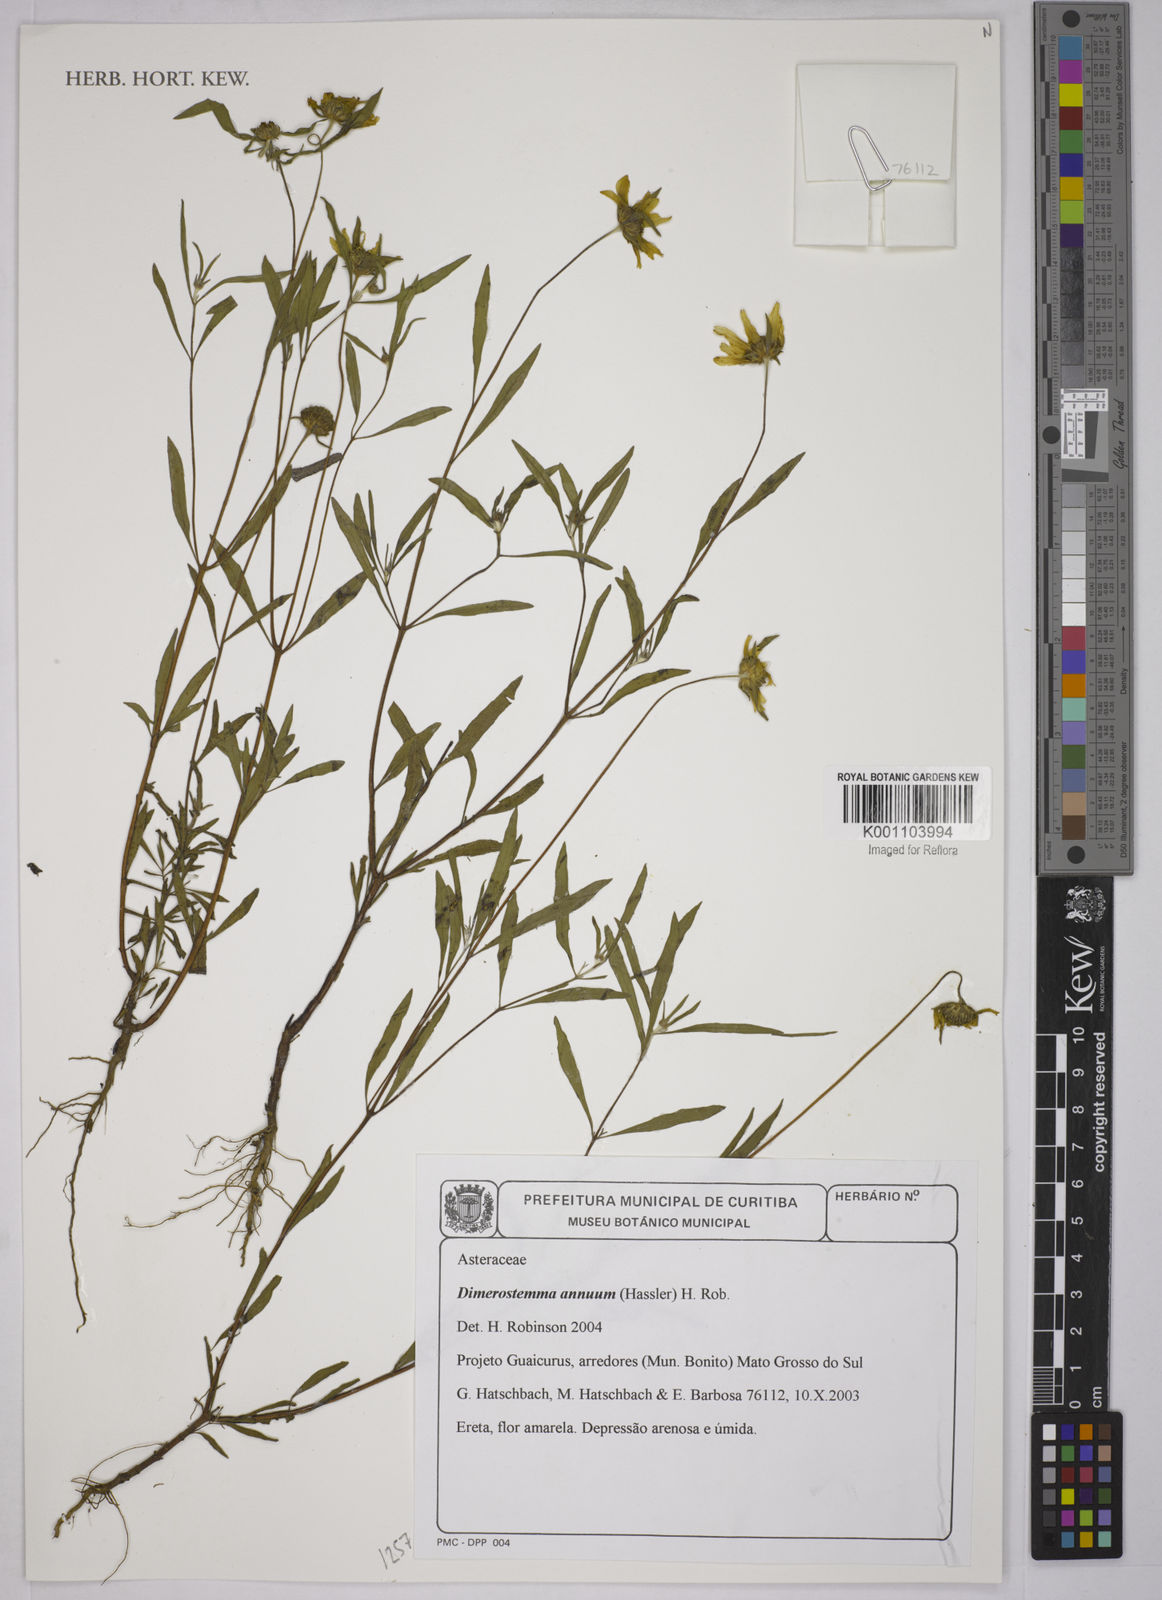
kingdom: Plantae
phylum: Tracheophyta
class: Magnoliopsida
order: Asterales
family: Asteraceae
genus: Dimerostemma
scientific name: Dimerostemma annuum
